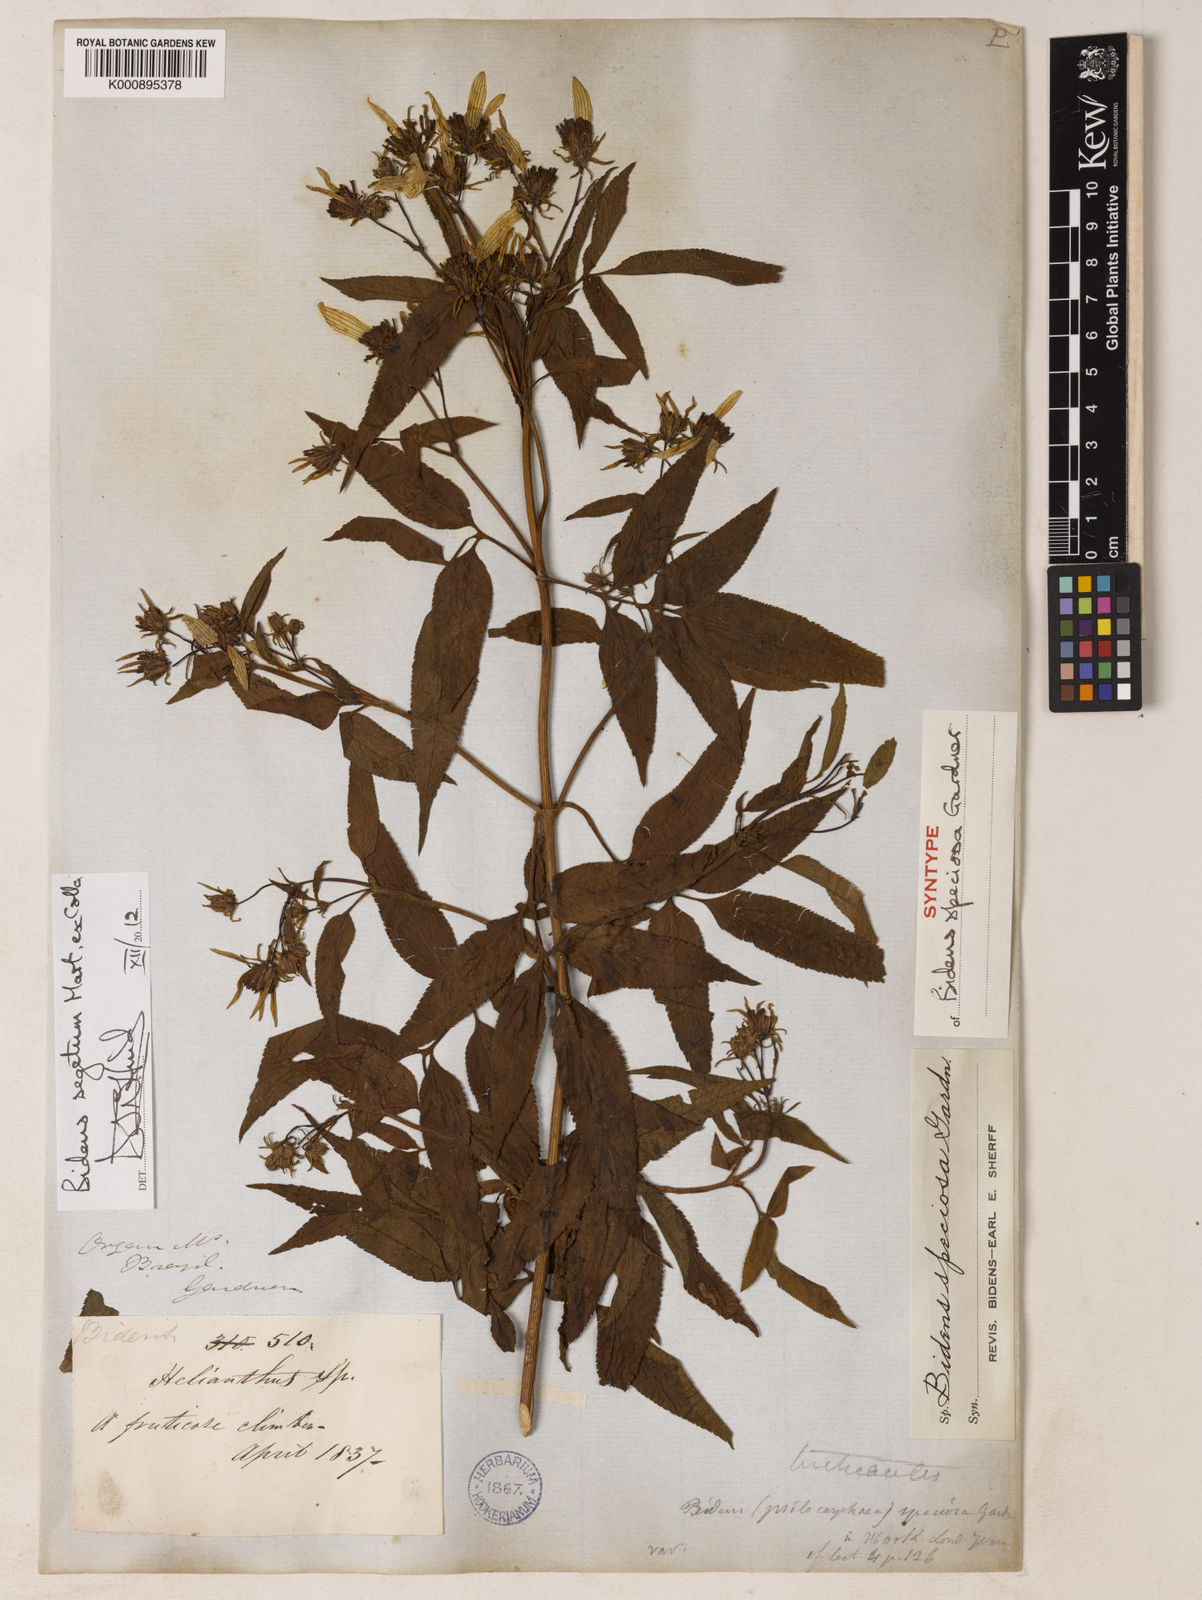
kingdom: Plantae
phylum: Tracheophyta
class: Magnoliopsida
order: Asterales
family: Asteraceae
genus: Bidens
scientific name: Bidens segetum
